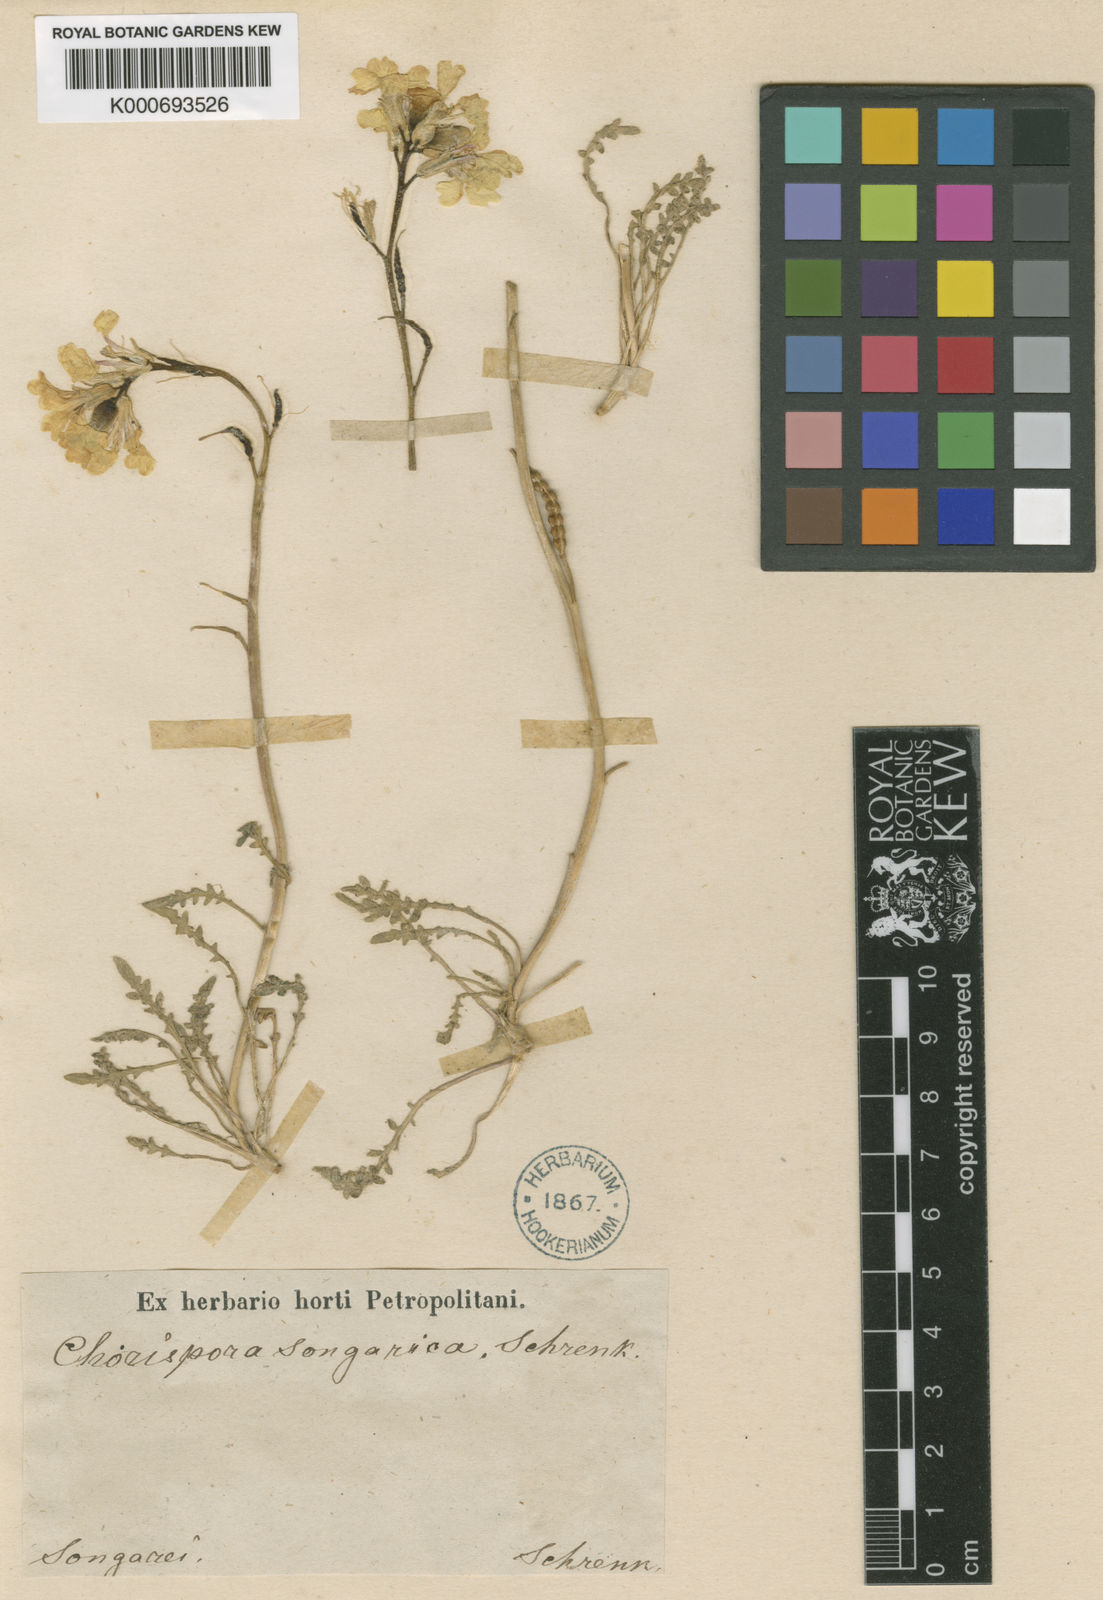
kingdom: Plantae
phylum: Tracheophyta
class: Magnoliopsida
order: Brassicales
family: Brassicaceae
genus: Chorispora
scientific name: Chorispora songarica
